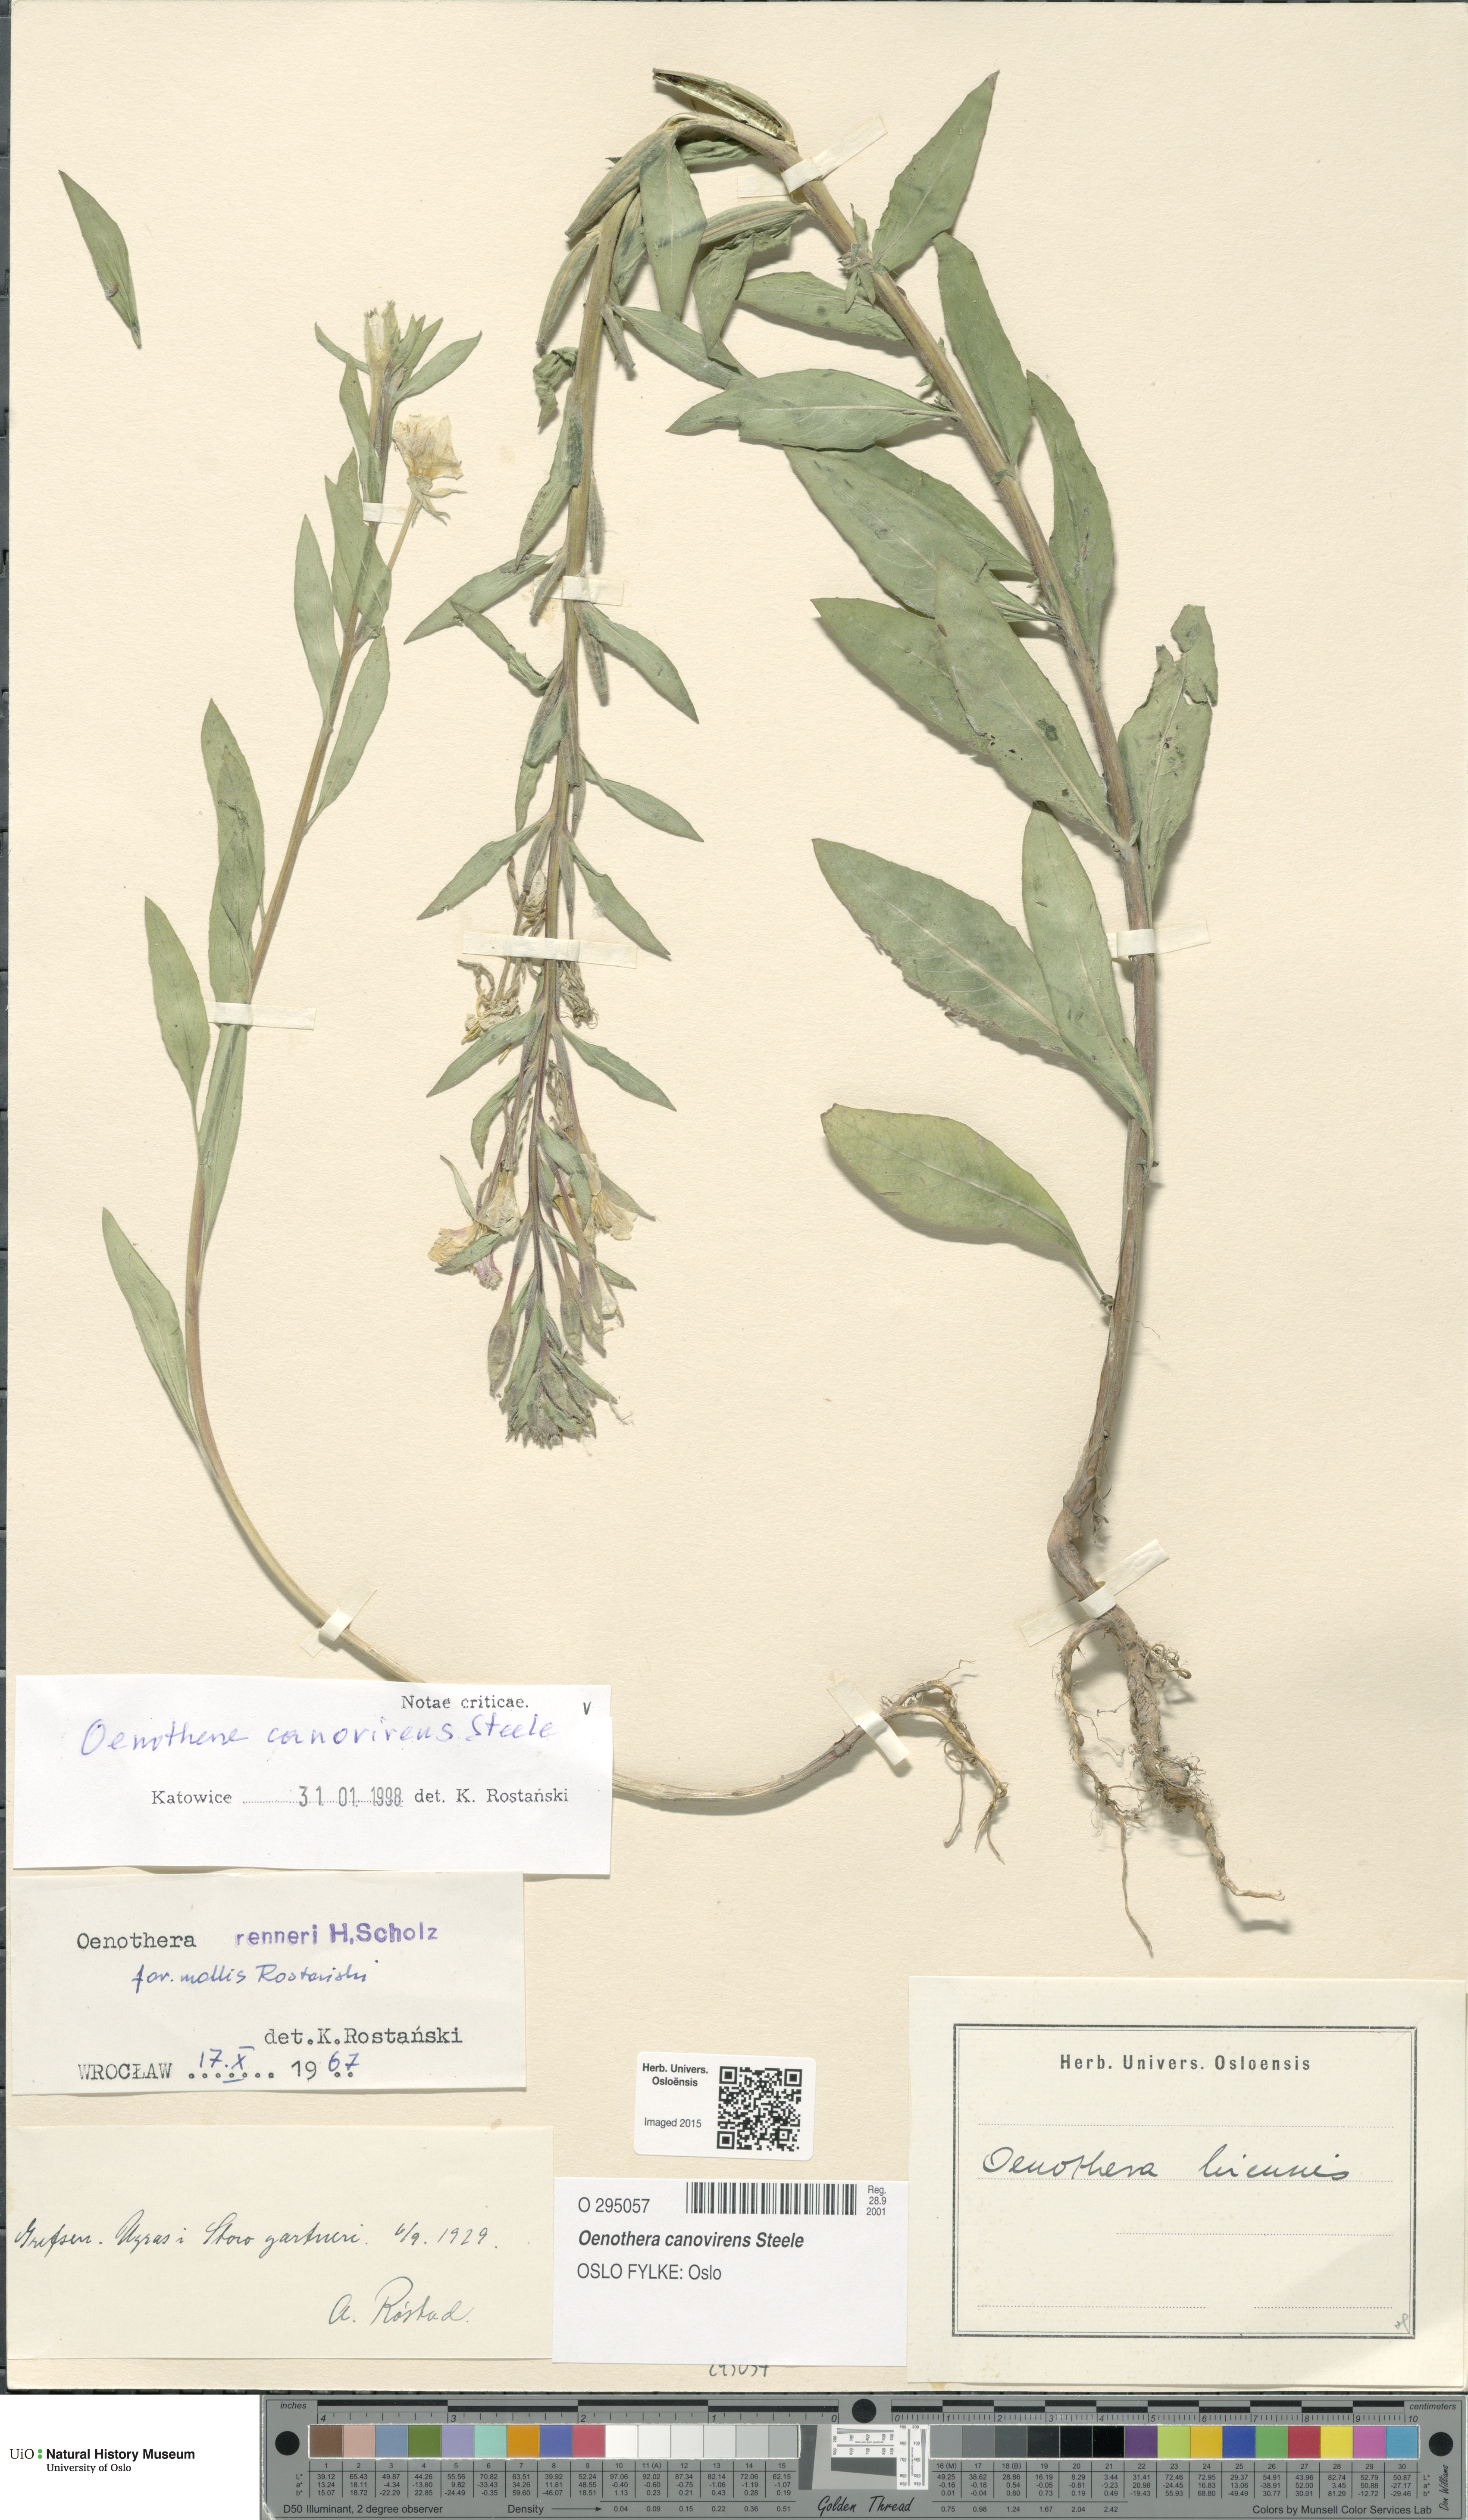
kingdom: Plantae
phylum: Tracheophyta
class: Magnoliopsida
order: Myrtales
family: Onagraceae
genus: Oenothera
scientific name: Oenothera villosa
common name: Hairy evening-primrose
